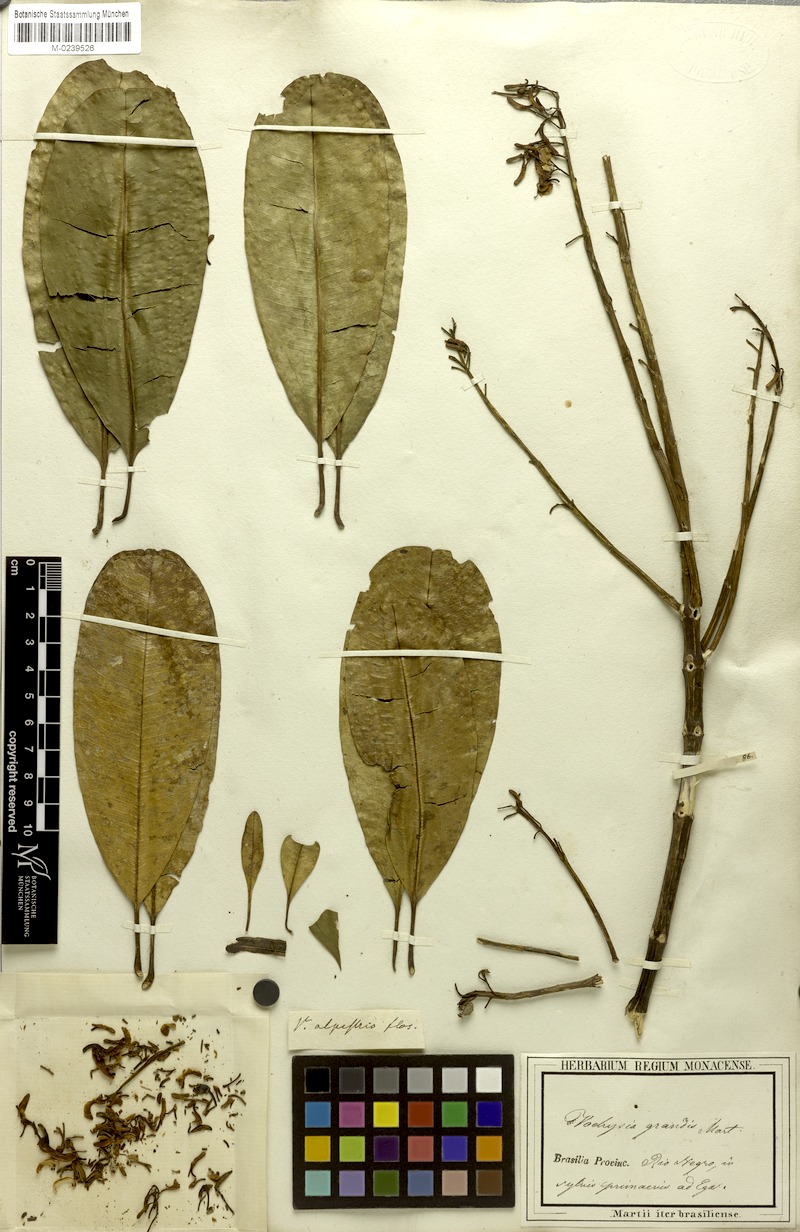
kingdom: Plantae
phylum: Tracheophyta
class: Magnoliopsida
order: Myrtales
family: Vochysiaceae
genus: Vochysia
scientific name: Vochysia grandis
